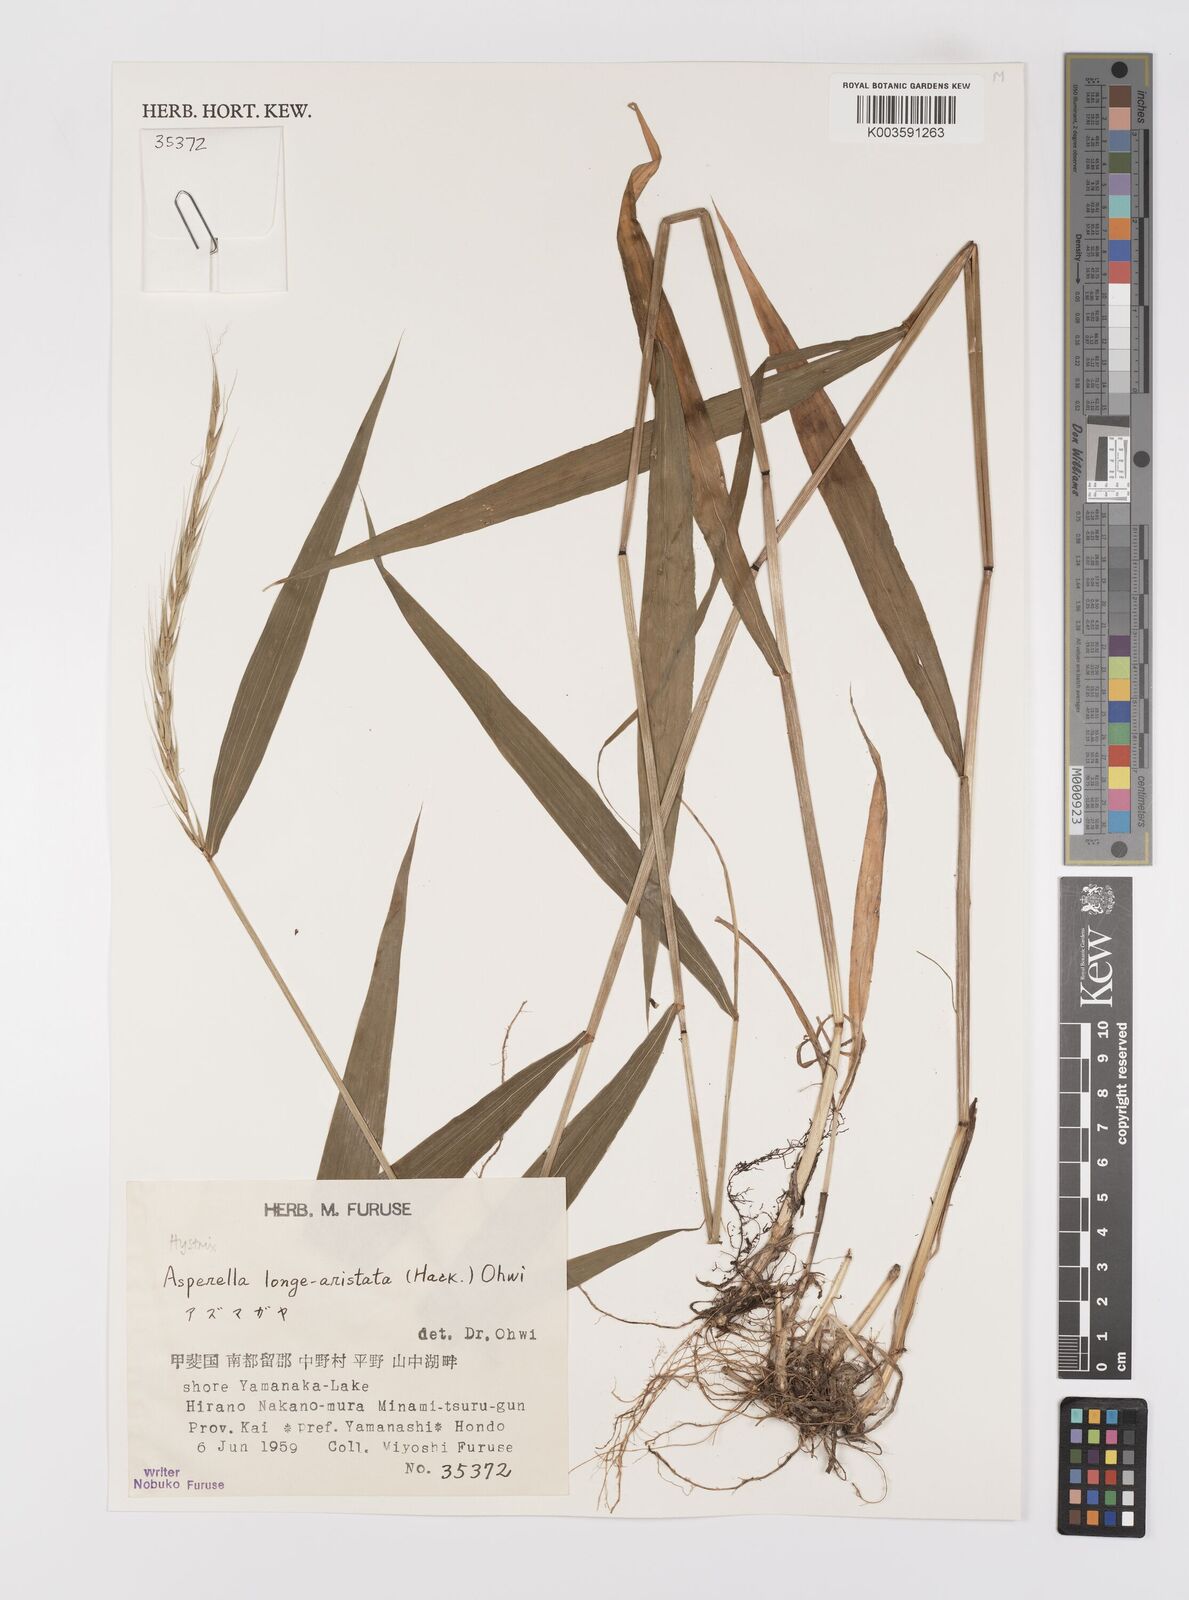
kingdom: Plantae
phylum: Tracheophyta
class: Liliopsida
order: Poales
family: Poaceae
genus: Leymus
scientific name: Leymus duthiei
